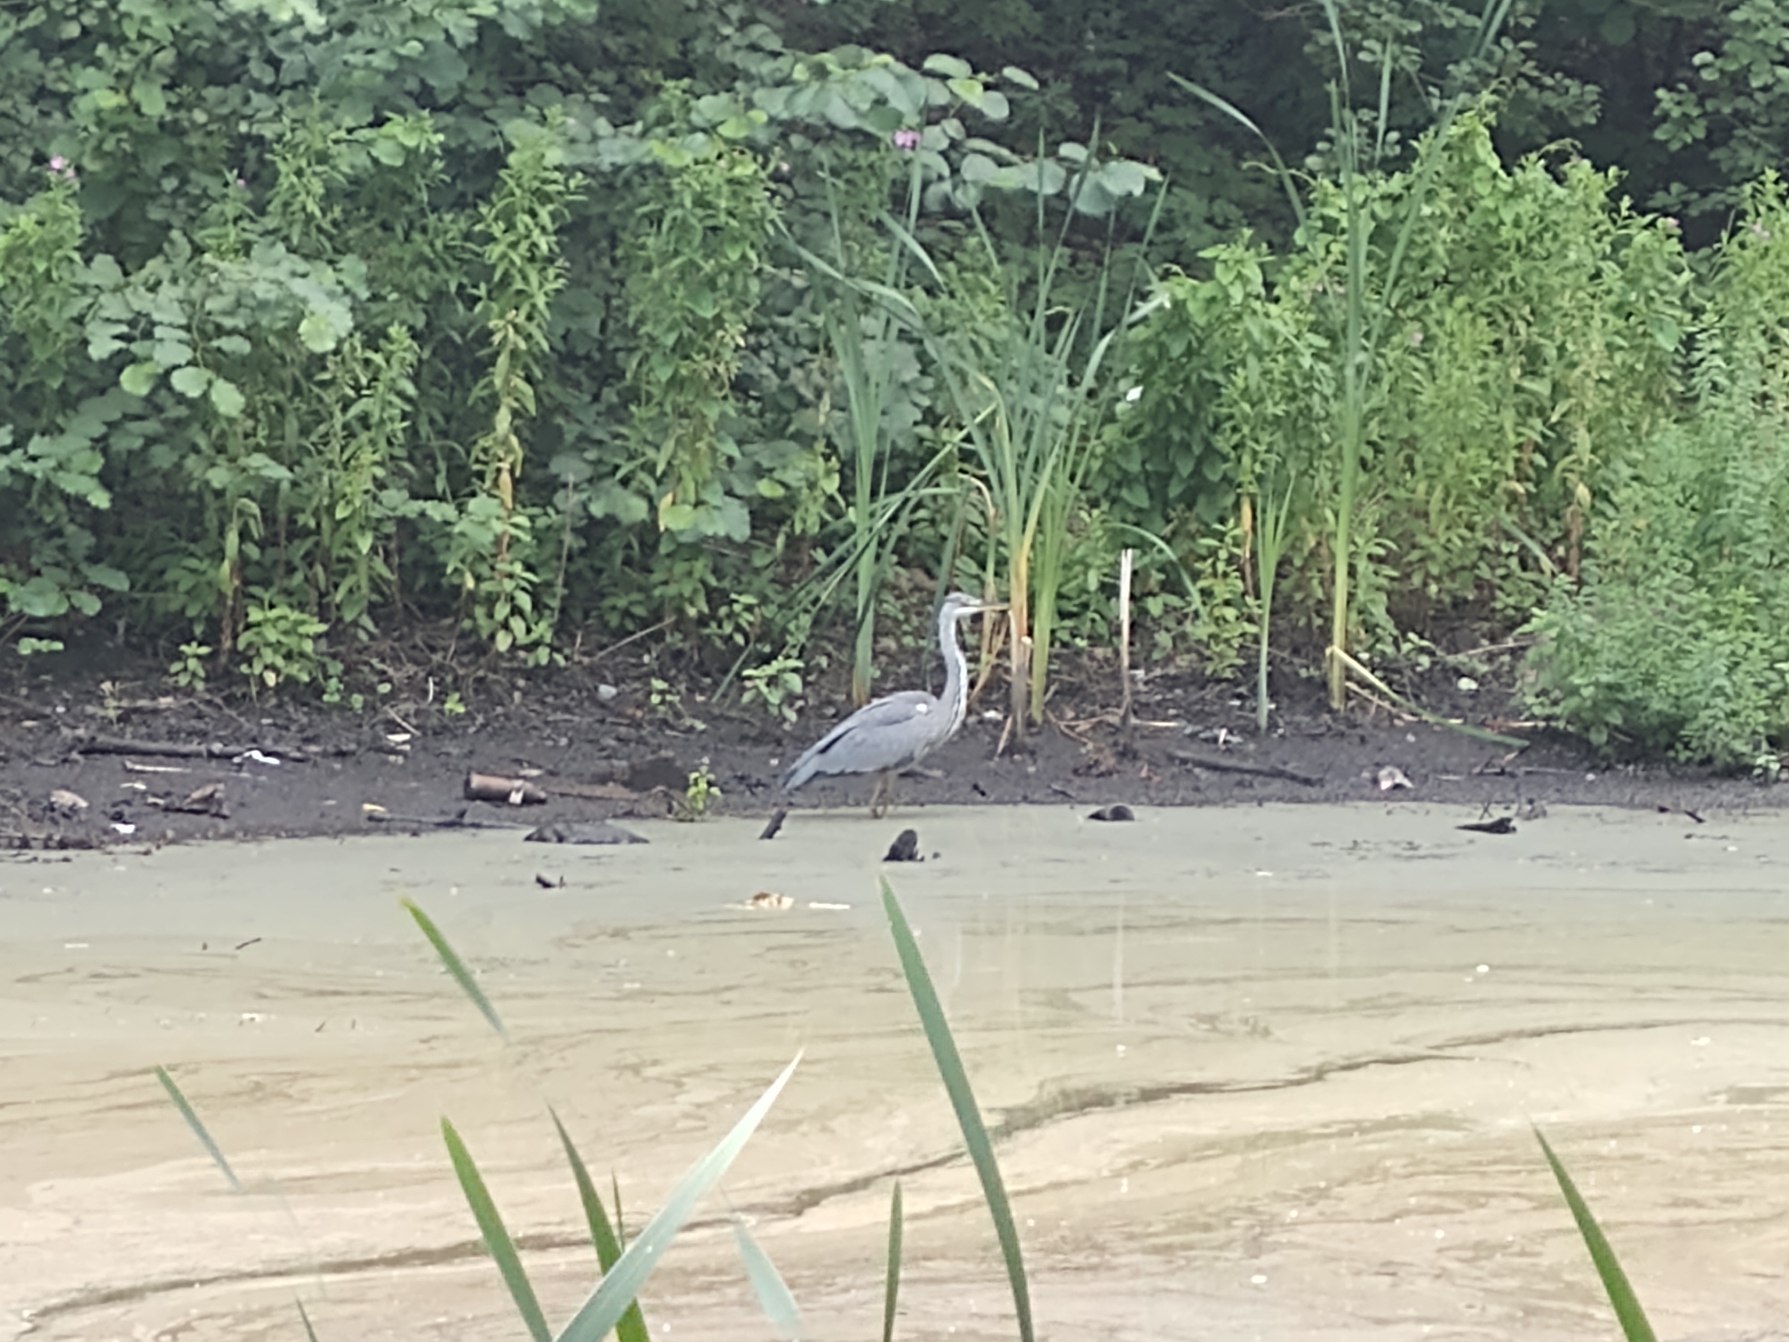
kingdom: Animalia
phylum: Chordata
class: Aves
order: Pelecaniformes
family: Ardeidae
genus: Ardea
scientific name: Ardea cinerea
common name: Fiskehejre
